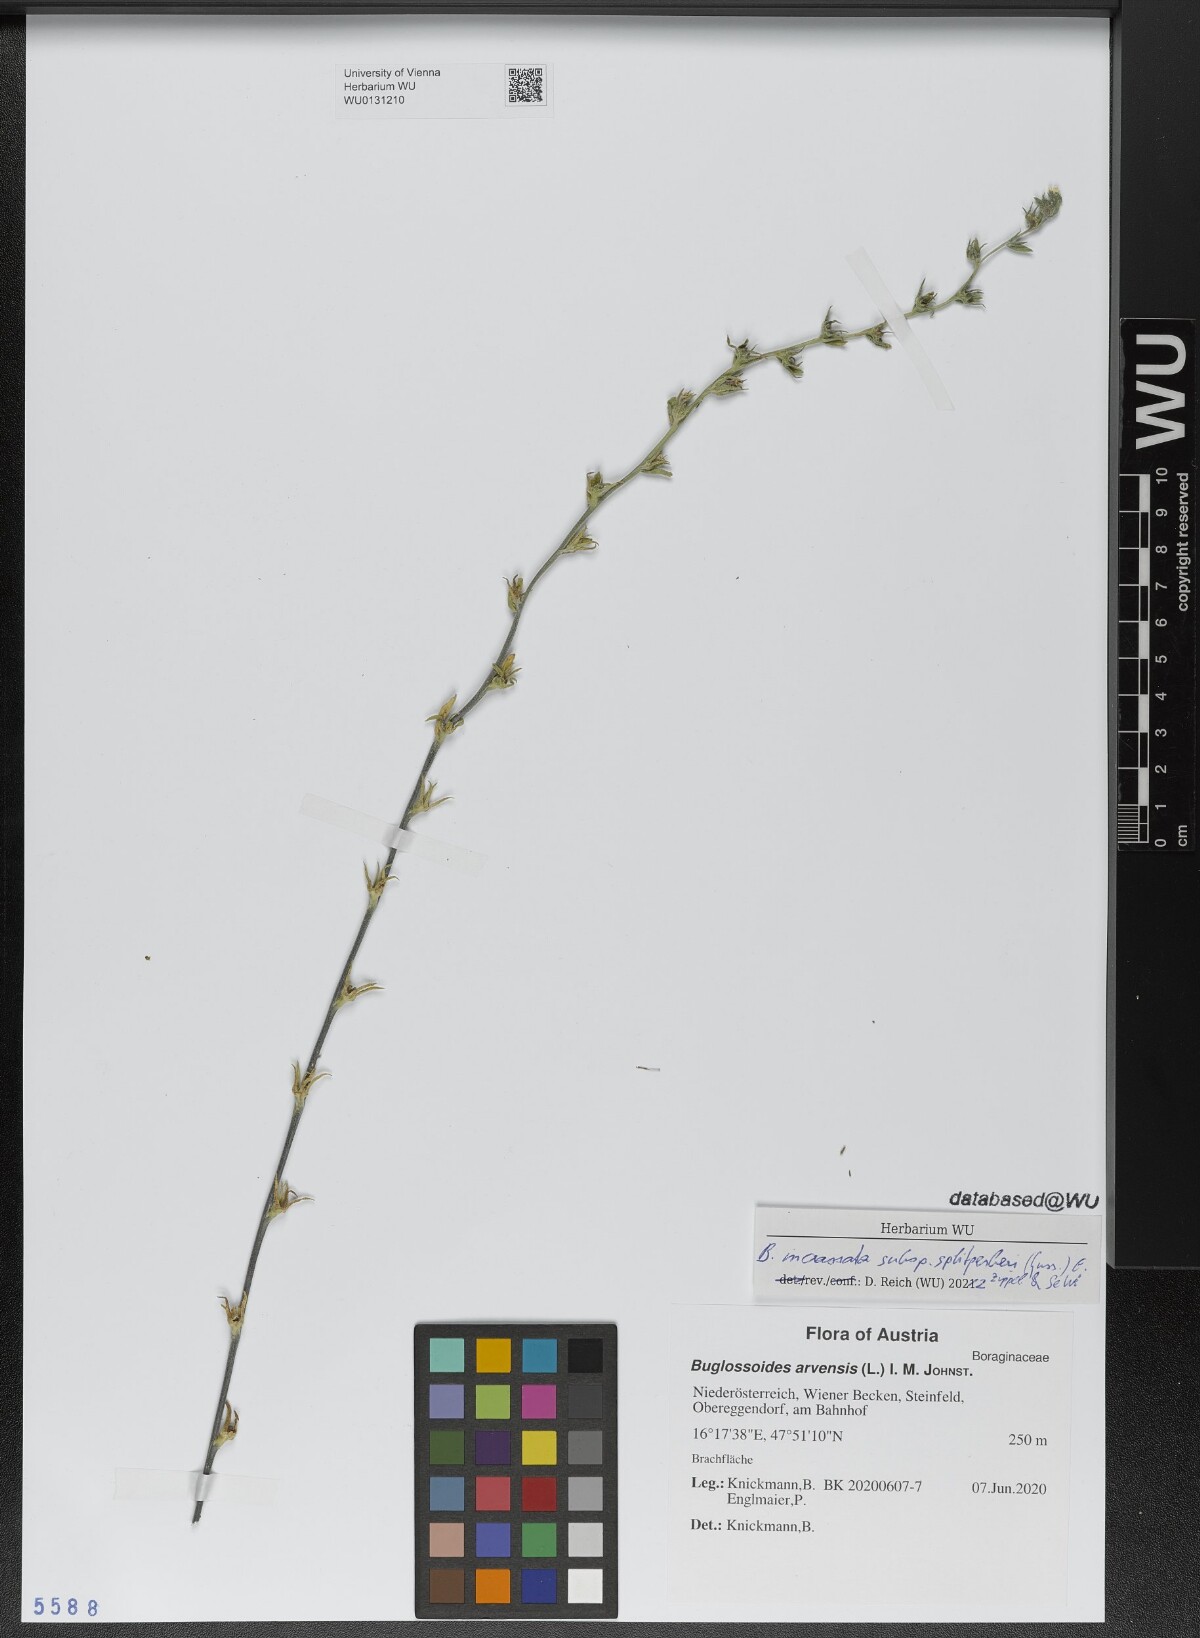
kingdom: Plantae
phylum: Tracheophyta
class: Magnoliopsida
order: Boraginales
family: Boraginaceae
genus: Buglossoides
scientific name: Buglossoides incrassata
